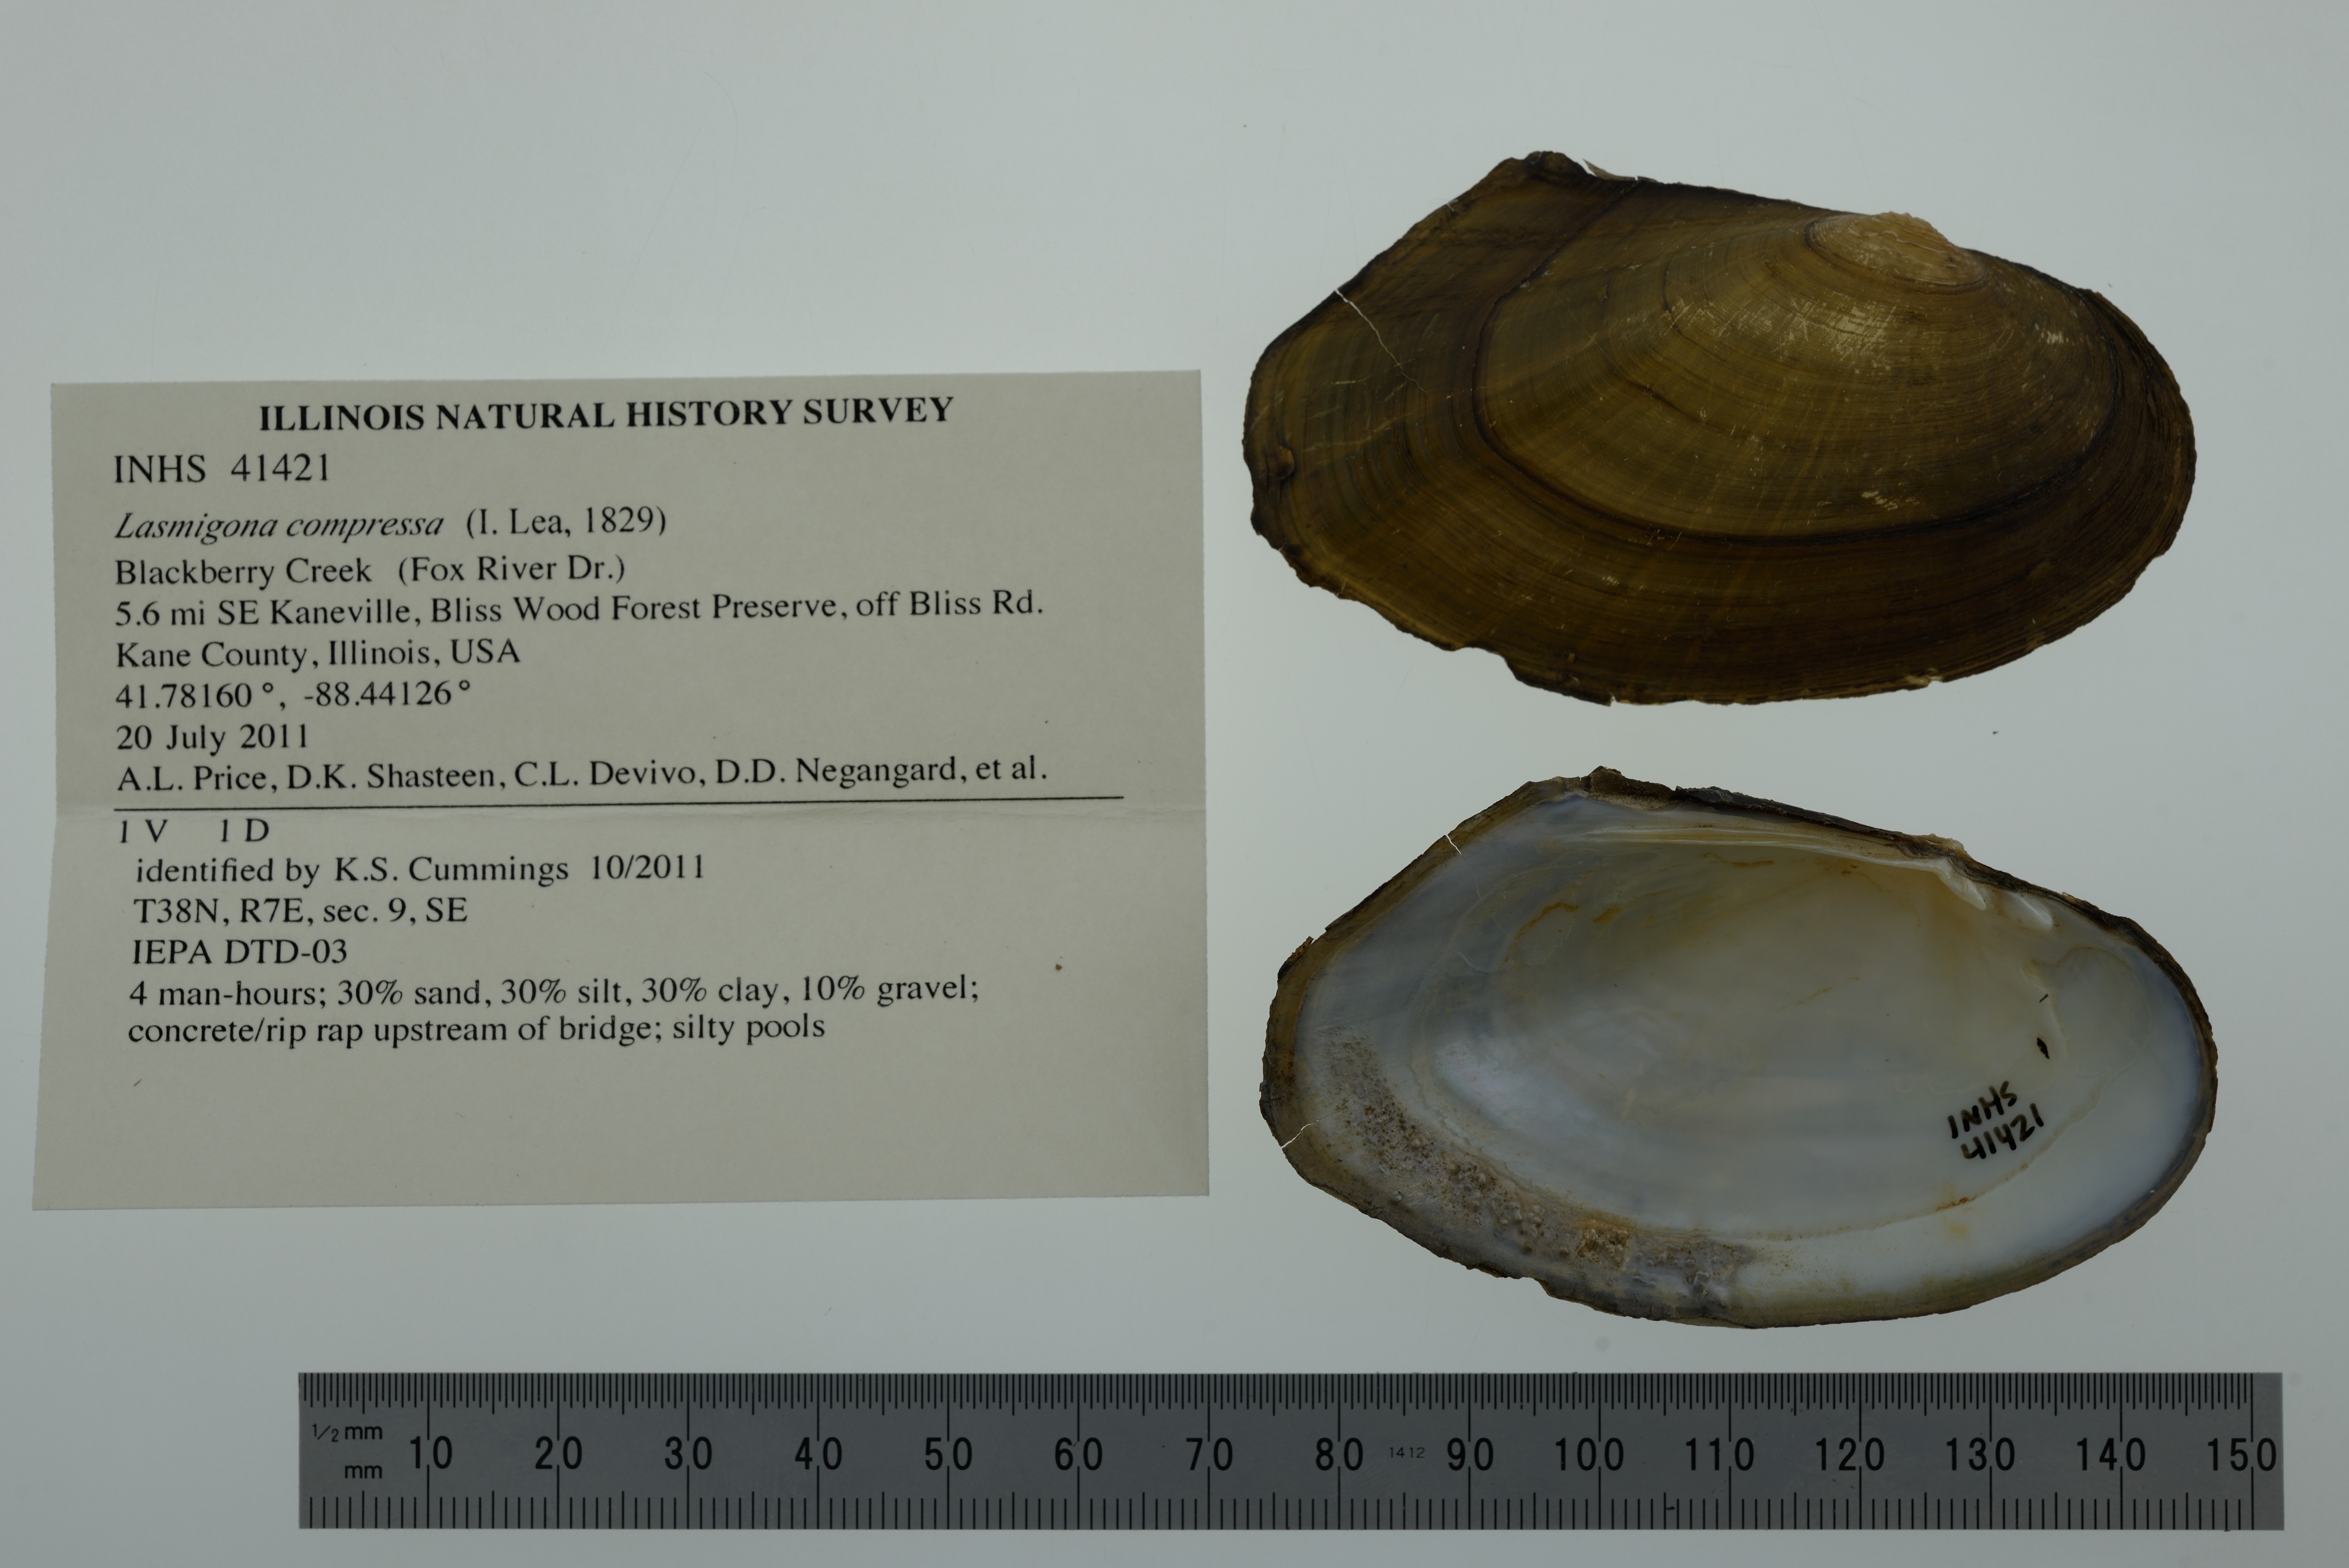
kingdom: Animalia
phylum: Mollusca
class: Bivalvia
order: Unionida
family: Unionidae
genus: Lasmigona
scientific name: Lasmigona compressa
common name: Creek heelsplitter
